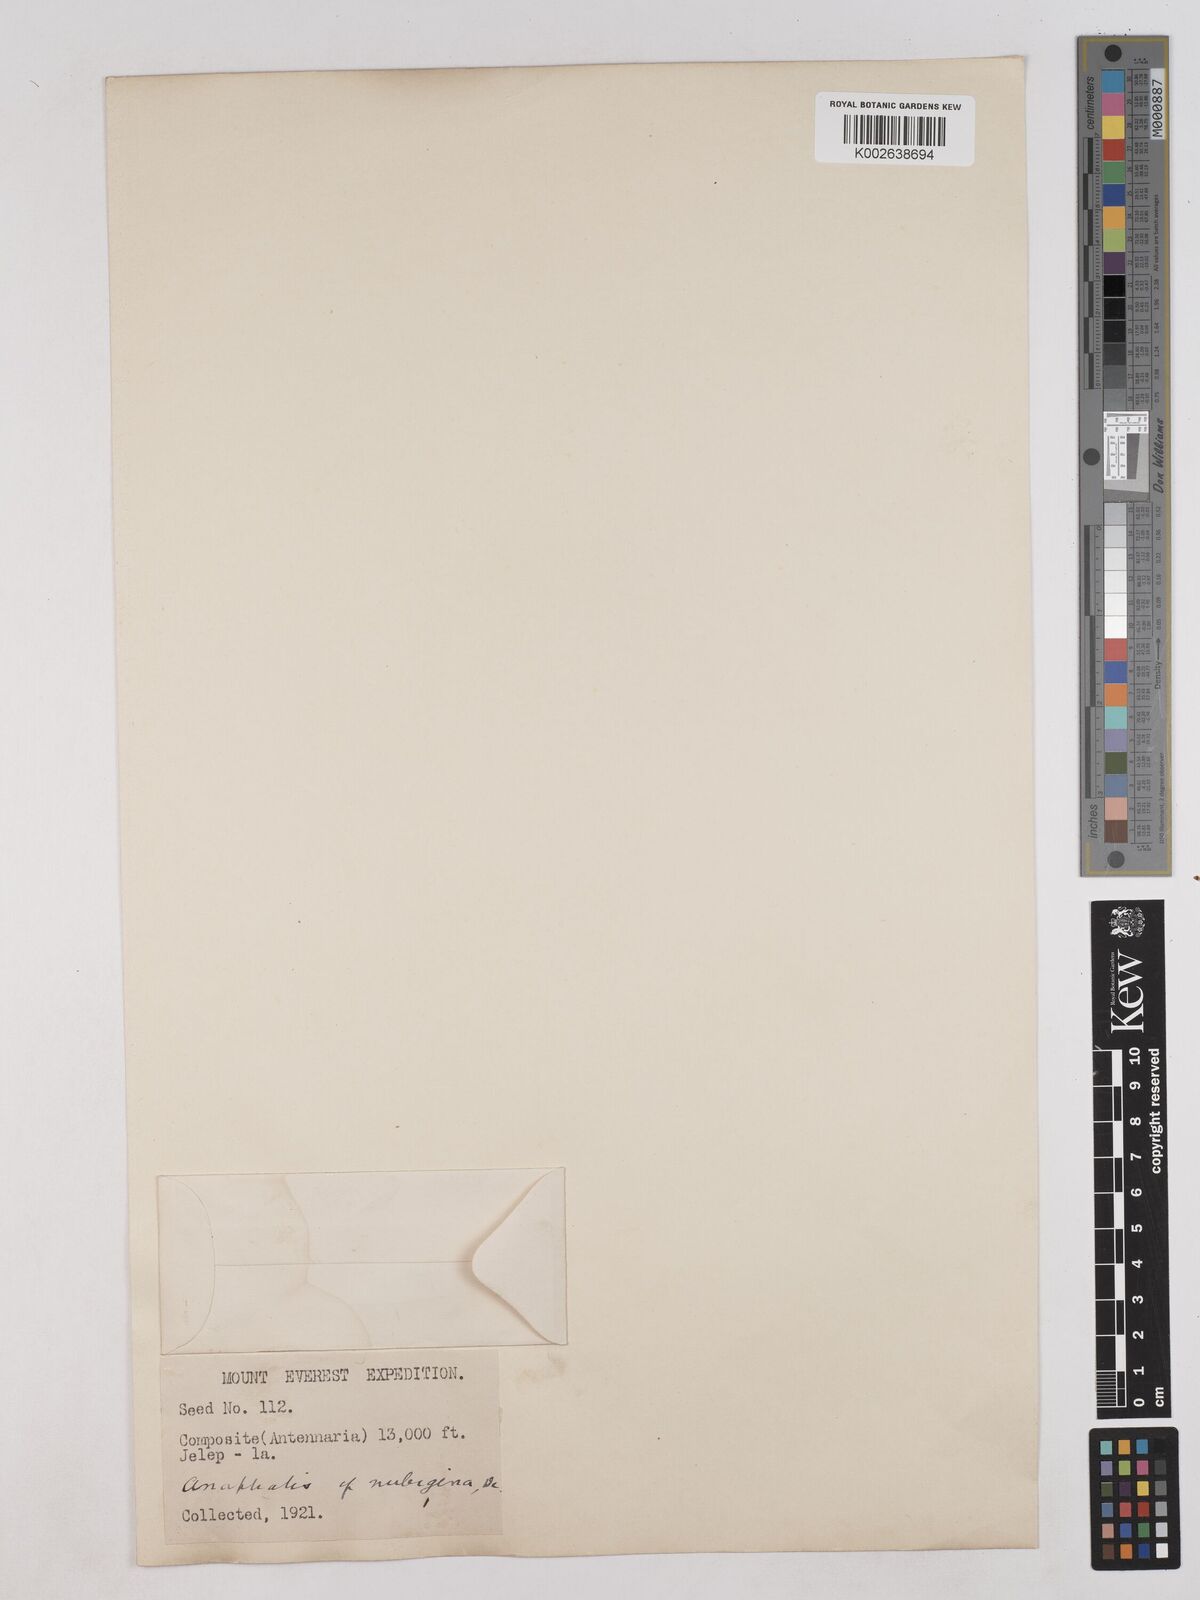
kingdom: Plantae
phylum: Tracheophyta
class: Magnoliopsida
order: Asterales
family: Asteraceae
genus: Anaphalis
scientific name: Anaphalis nepalensis
